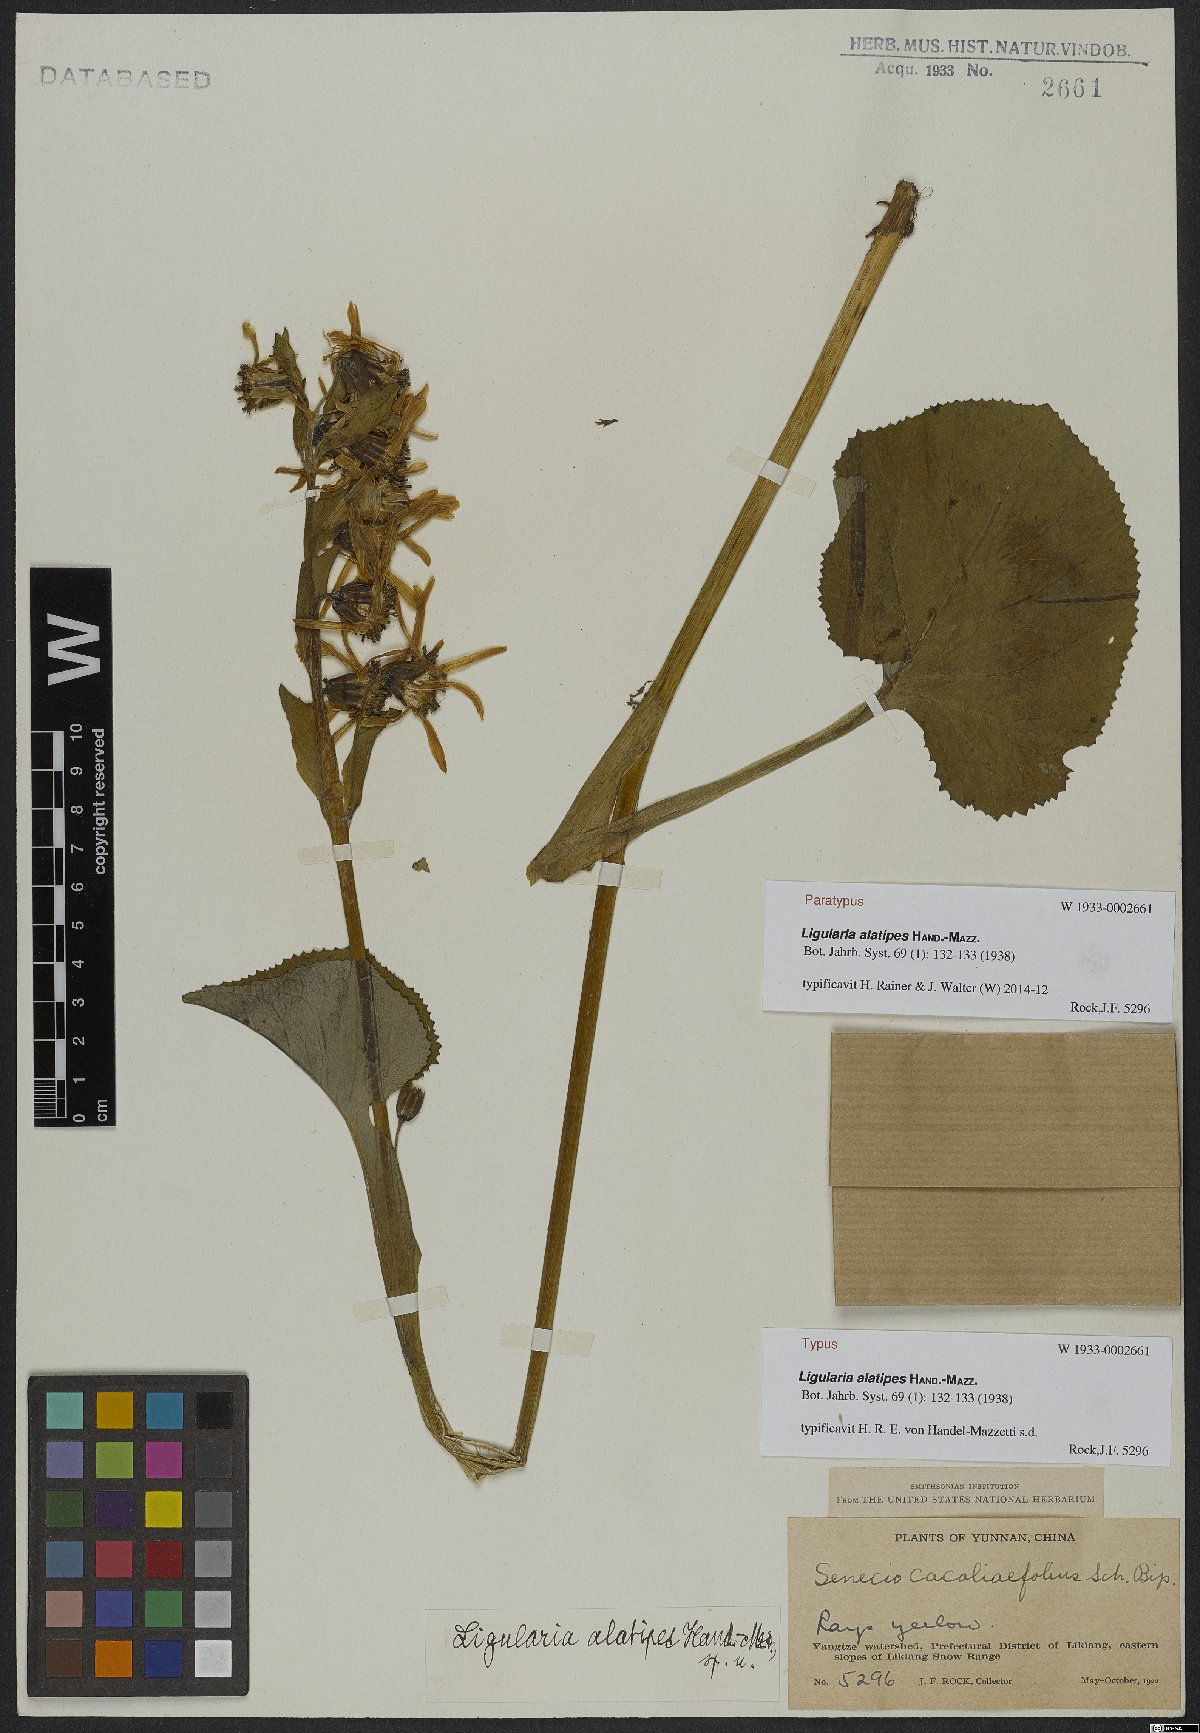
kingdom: Plantae
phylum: Tracheophyta
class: Magnoliopsida
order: Asterales
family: Asteraceae
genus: Ligularia
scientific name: Ligularia alatipes
